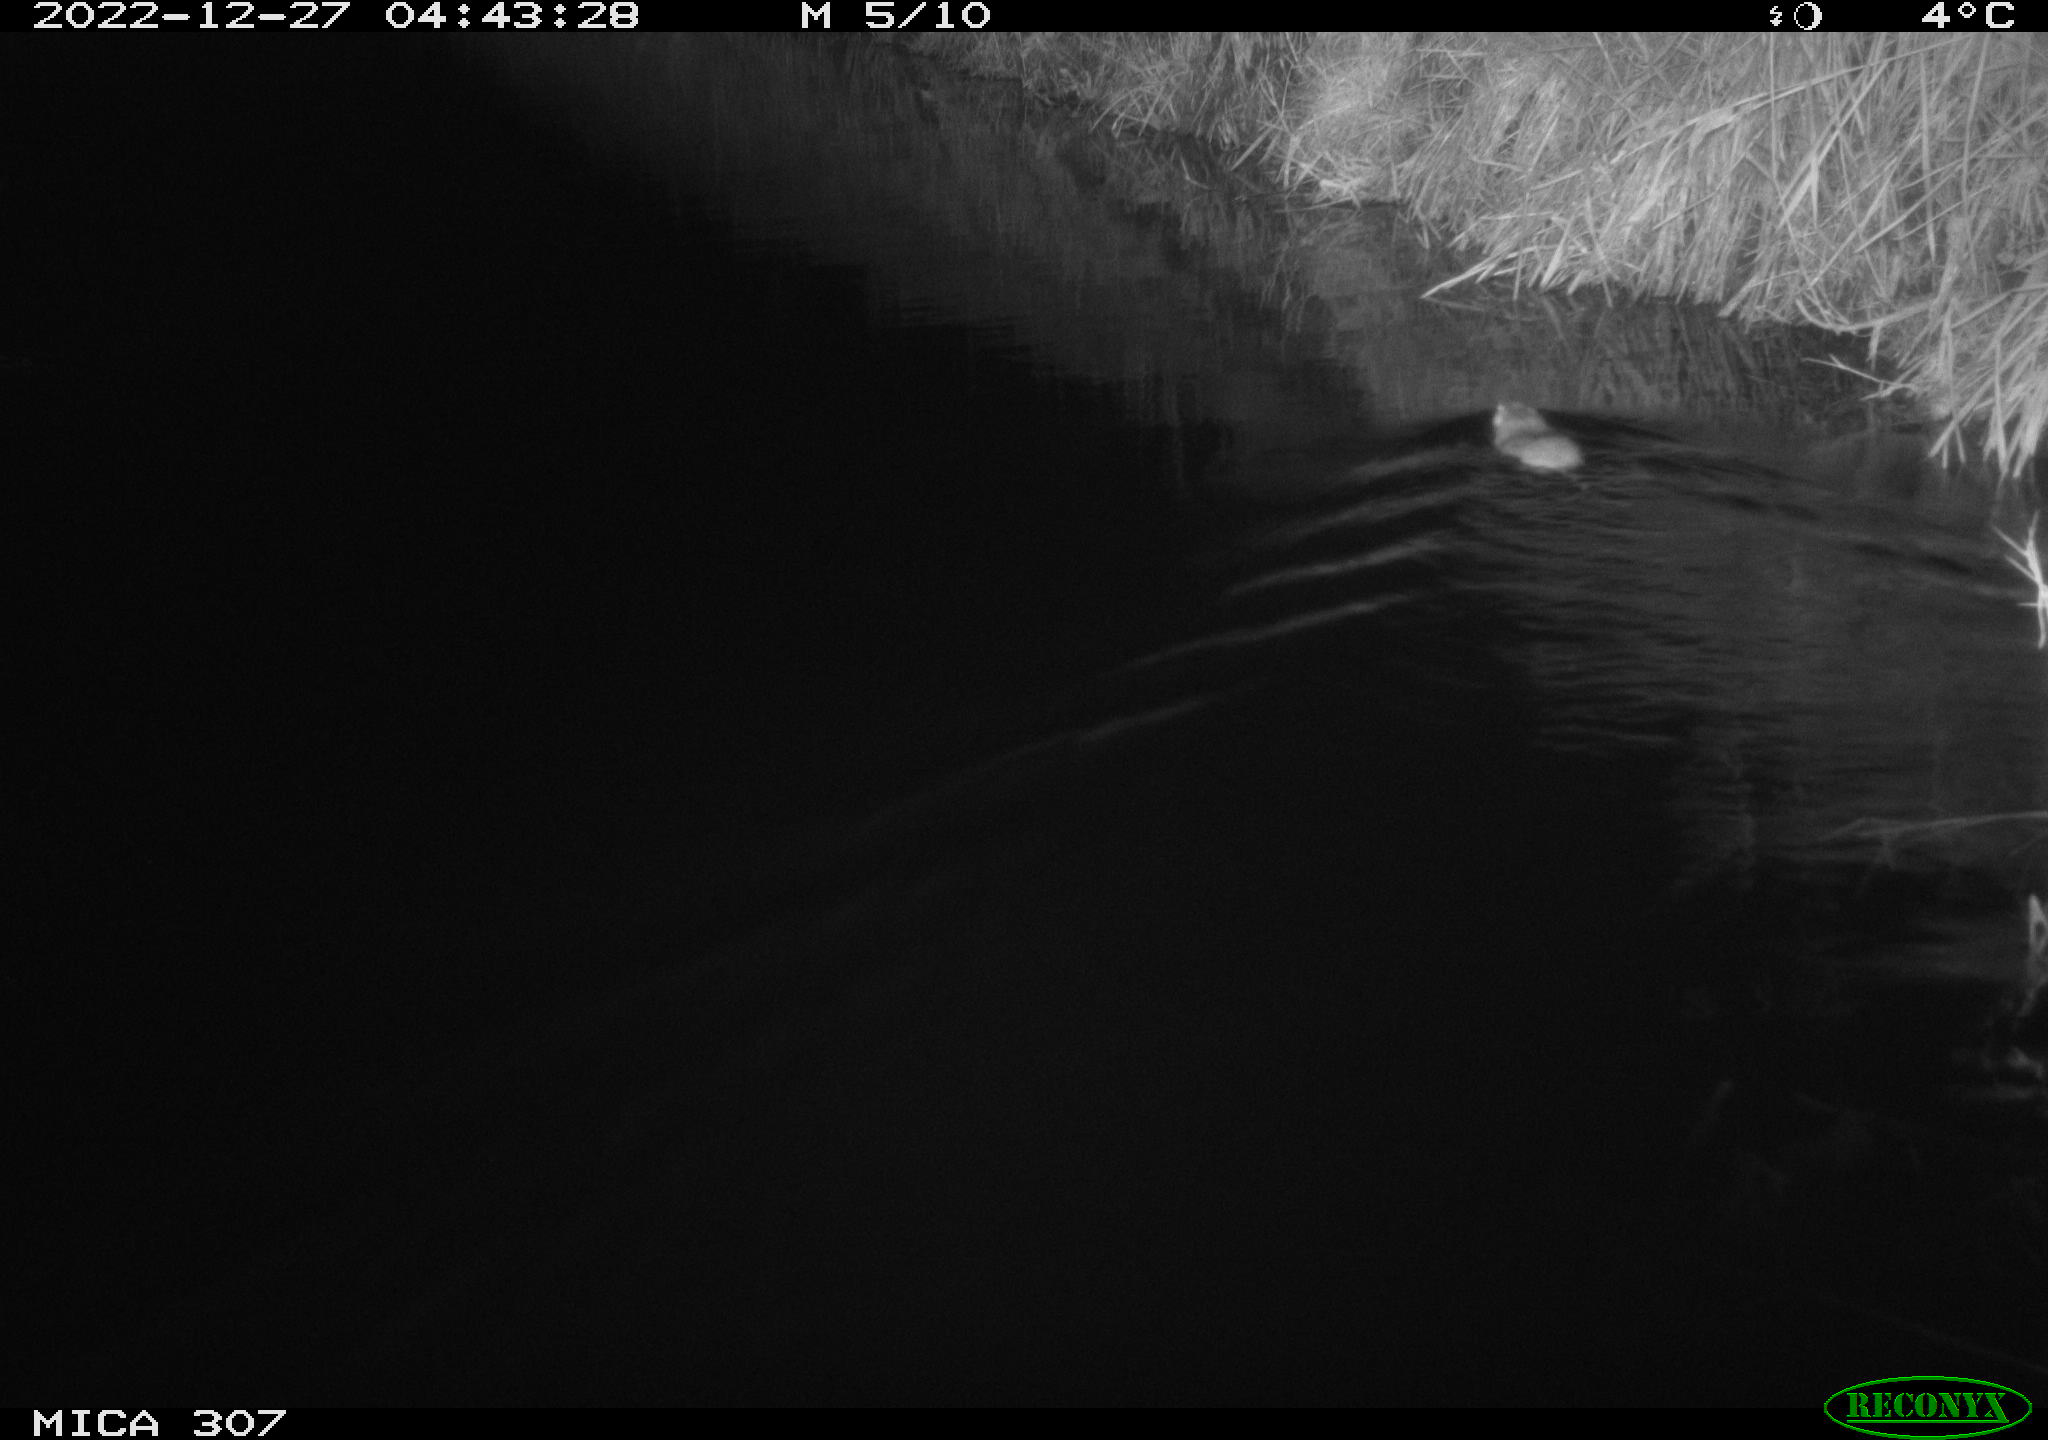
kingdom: Animalia
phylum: Chordata
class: Mammalia
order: Rodentia
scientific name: Rodentia
